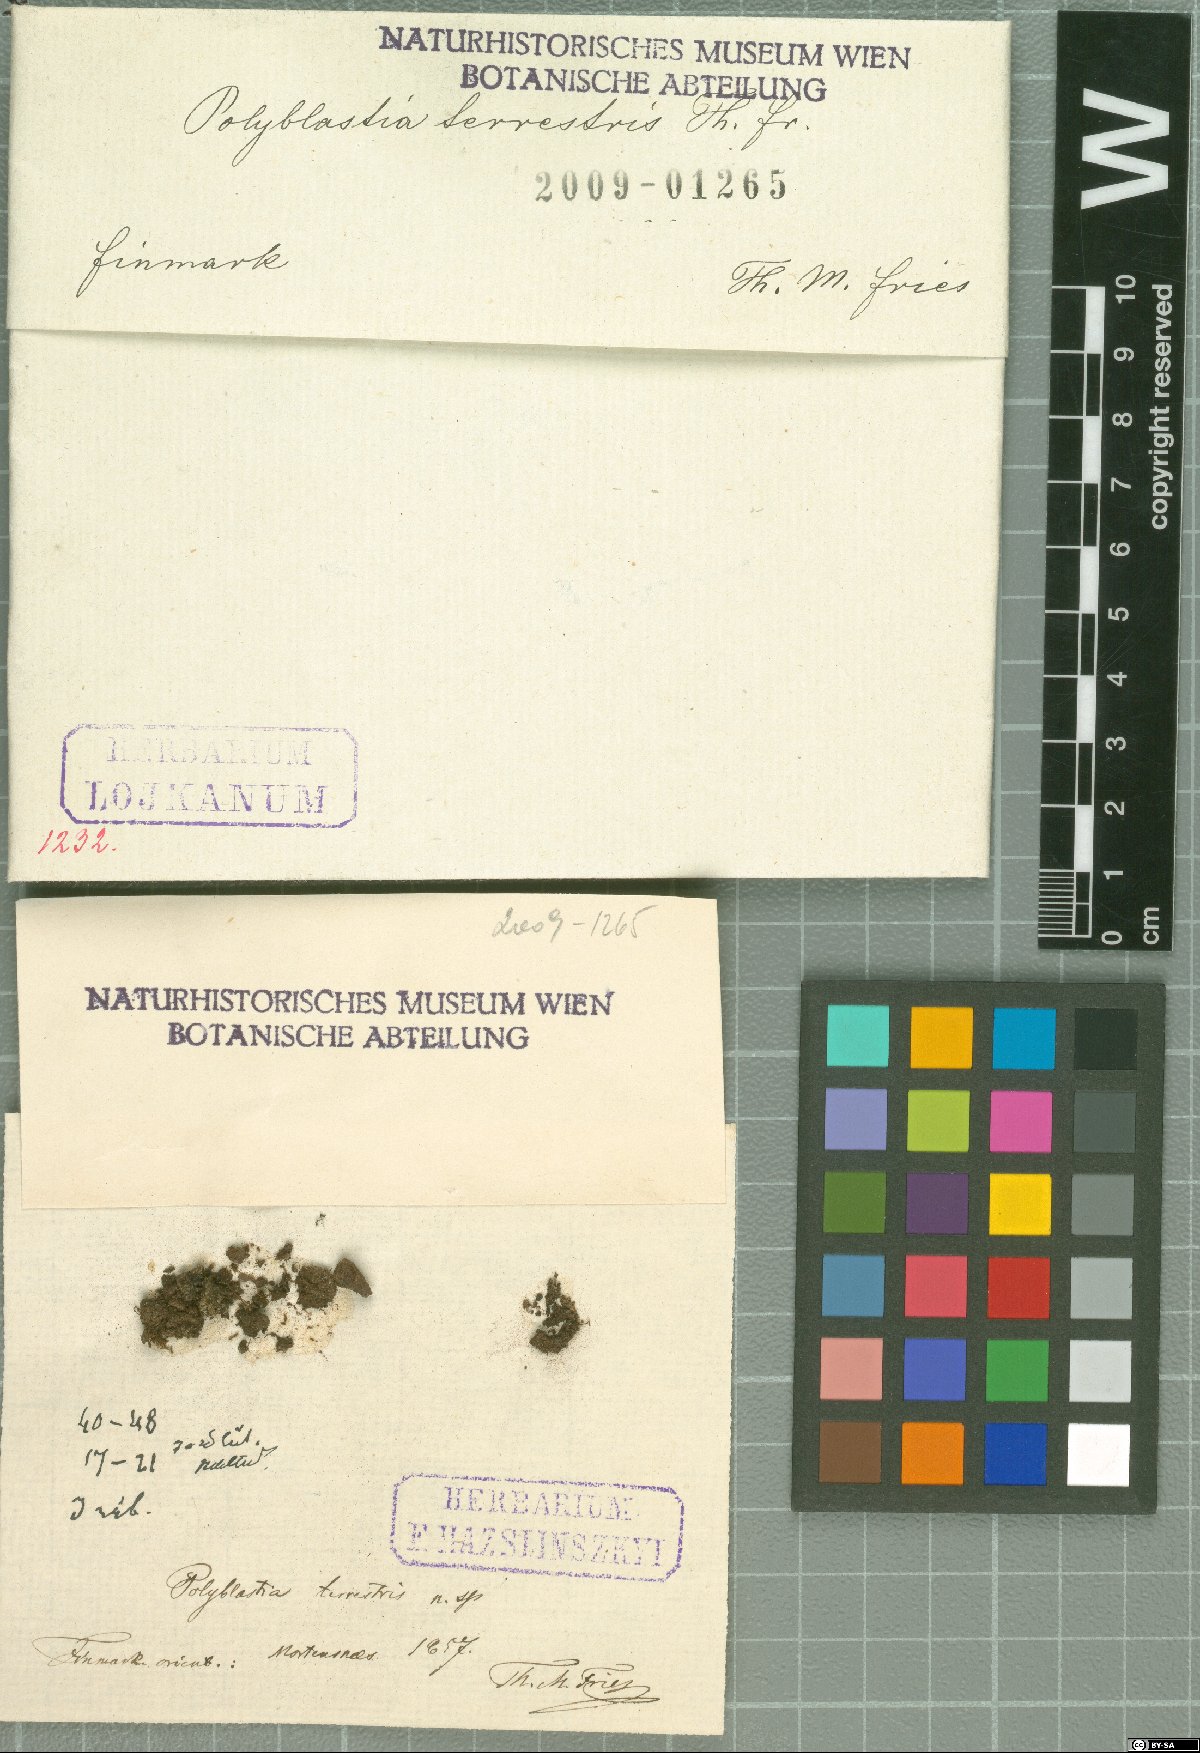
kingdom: Fungi
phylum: Ascomycota
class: Eurotiomycetes
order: Verrucariales
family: Verrucariaceae
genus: Polyblastia
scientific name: Polyblastia
